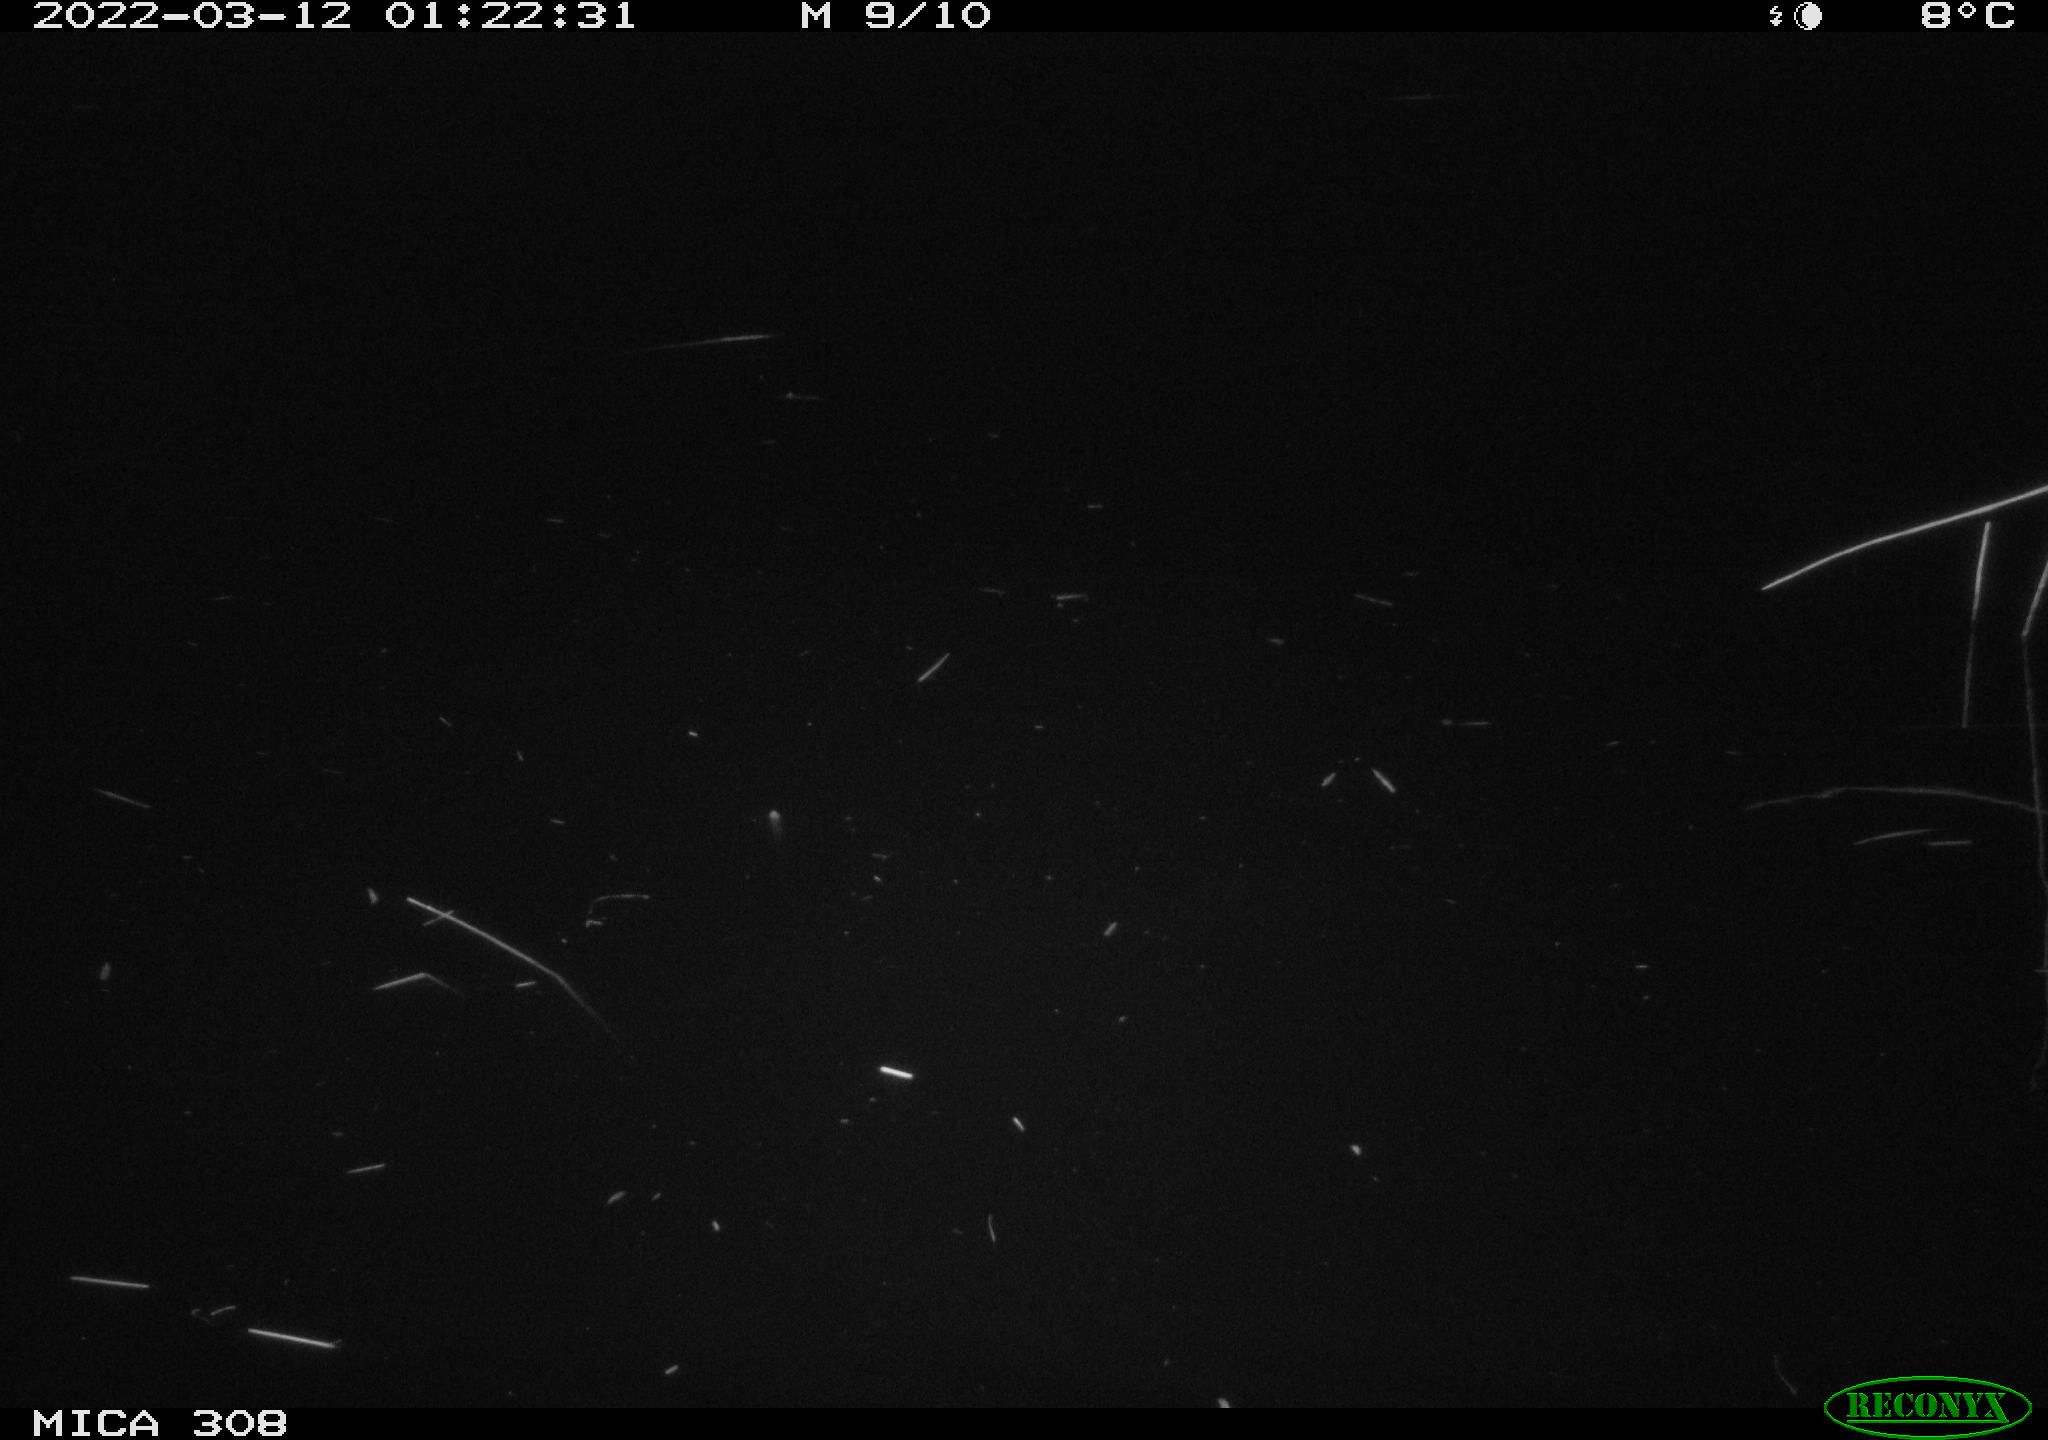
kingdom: Animalia
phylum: Chordata
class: Mammalia
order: Rodentia
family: Muridae
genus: Rattus
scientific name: Rattus norvegicus
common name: Brown rat
